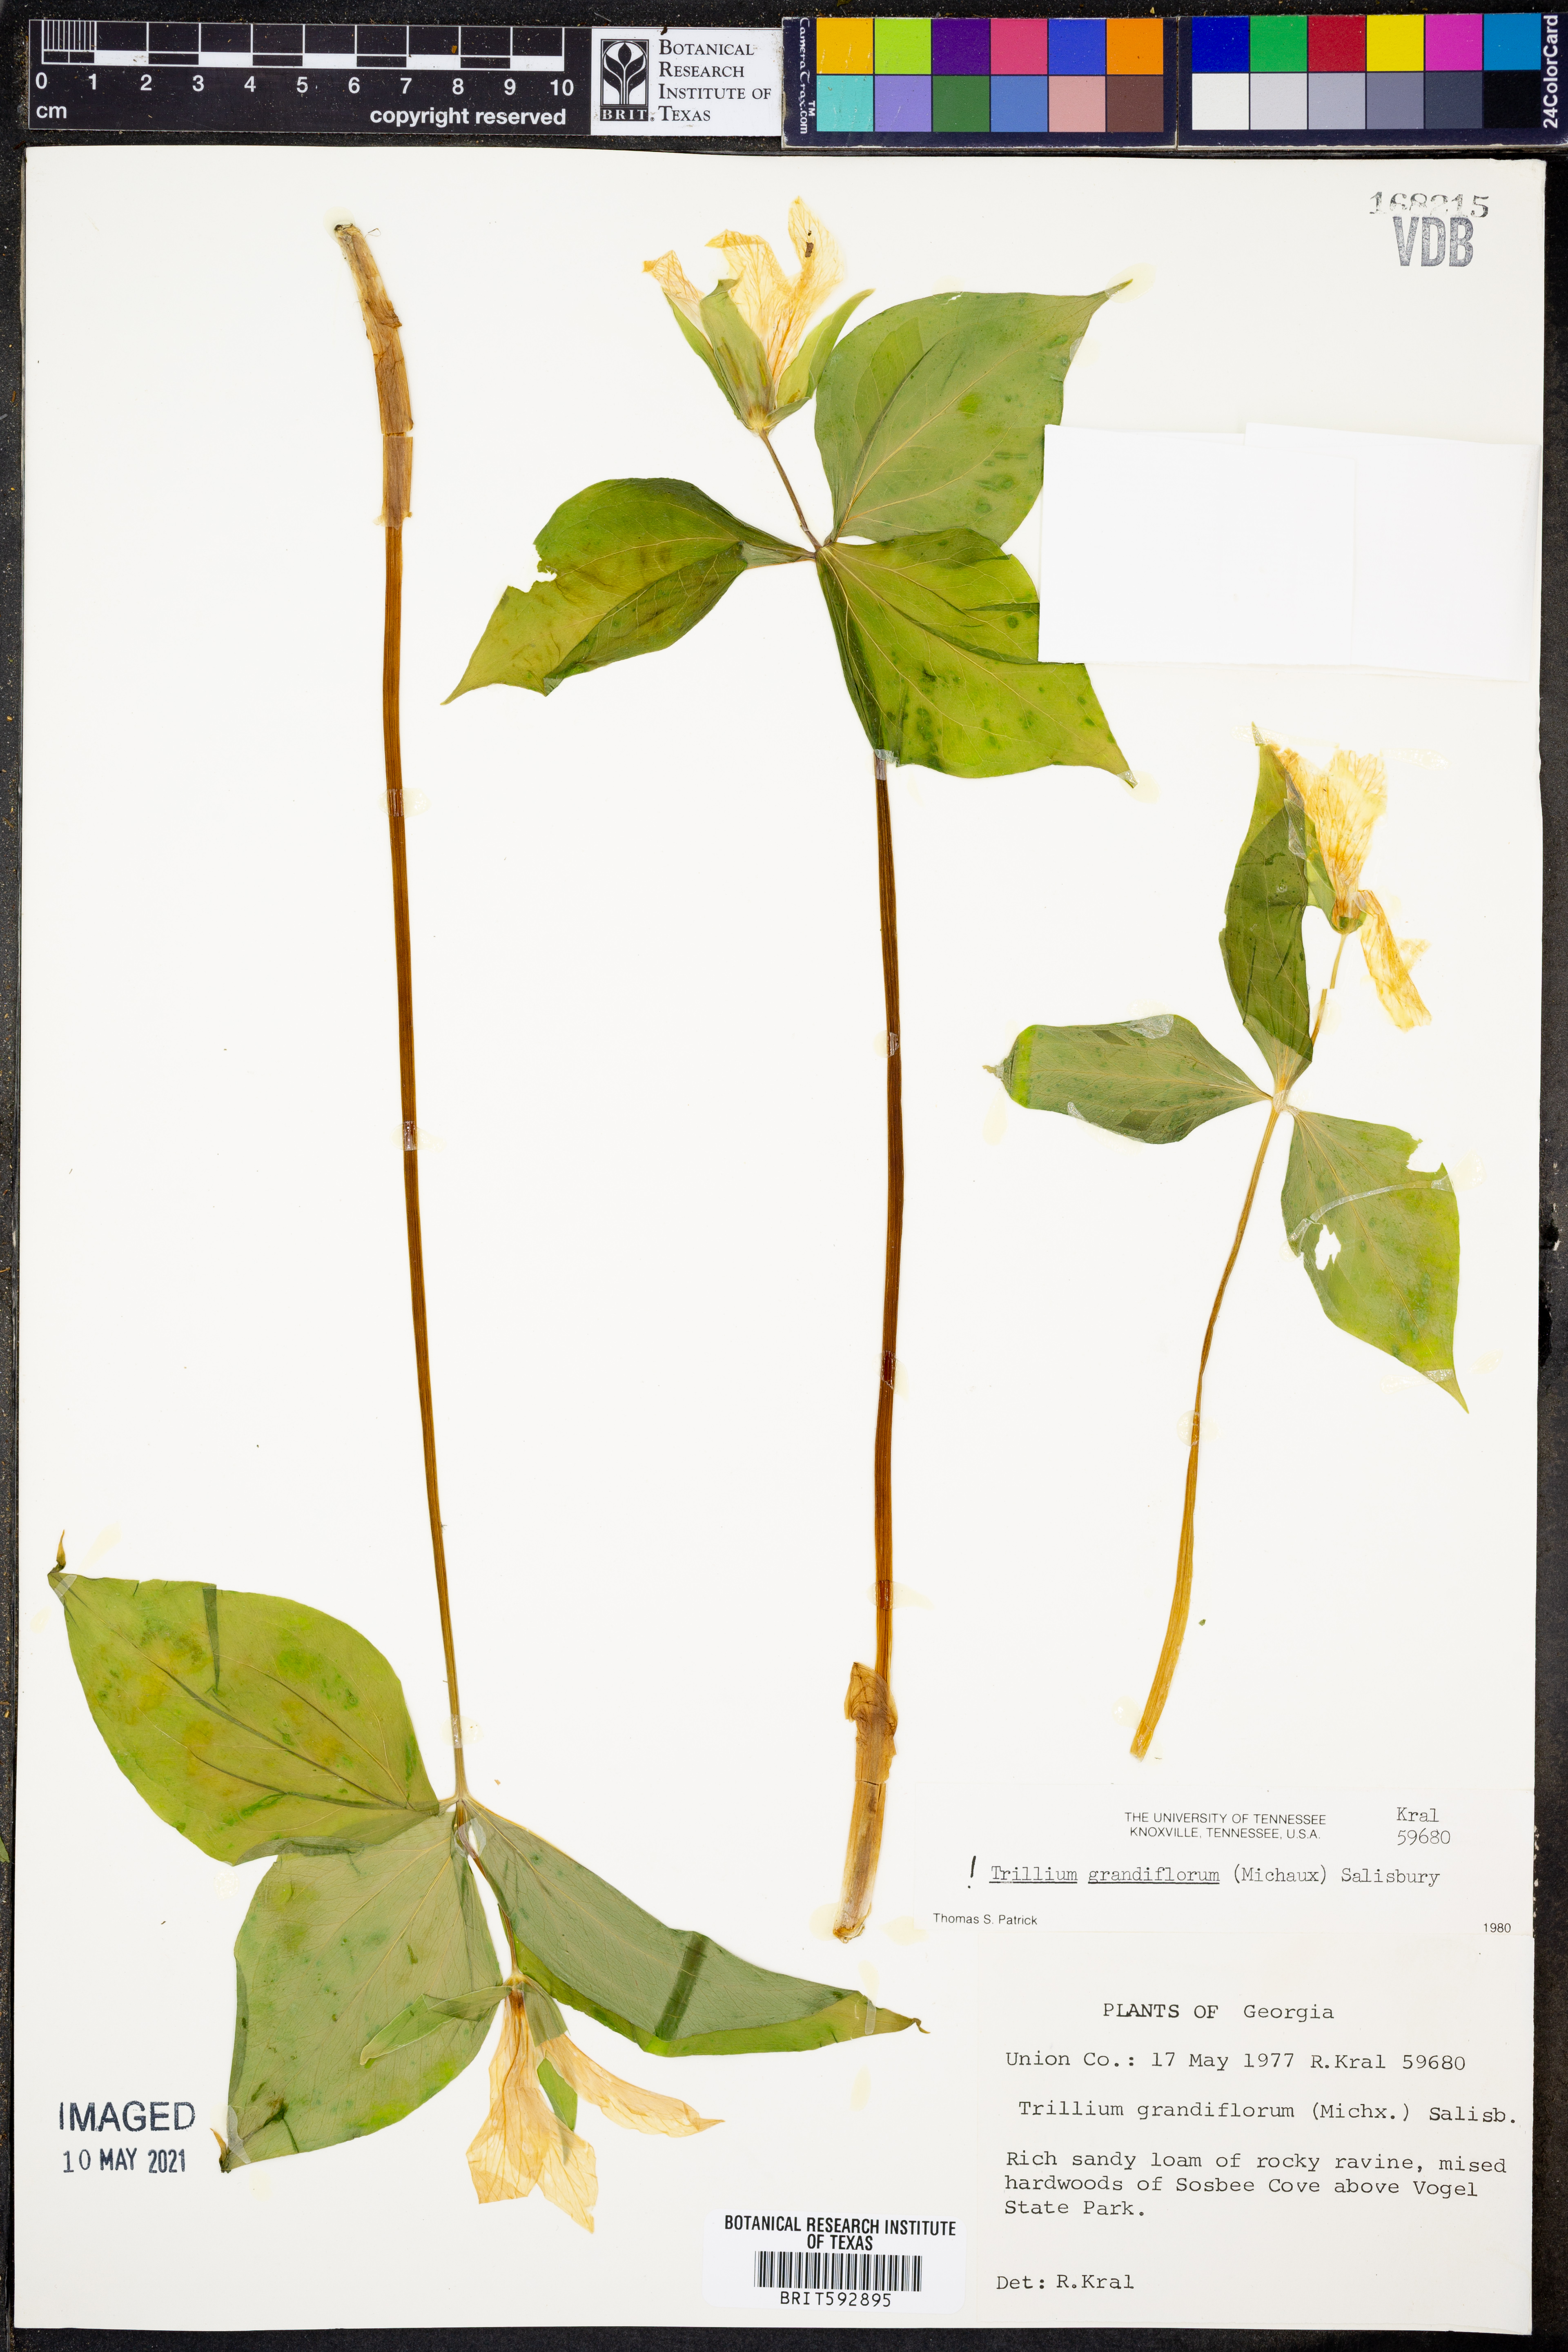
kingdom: Plantae
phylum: Tracheophyta
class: Liliopsida
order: Liliales
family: Melanthiaceae
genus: Trillium
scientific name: Trillium grandiflorum
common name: Great white trillium
